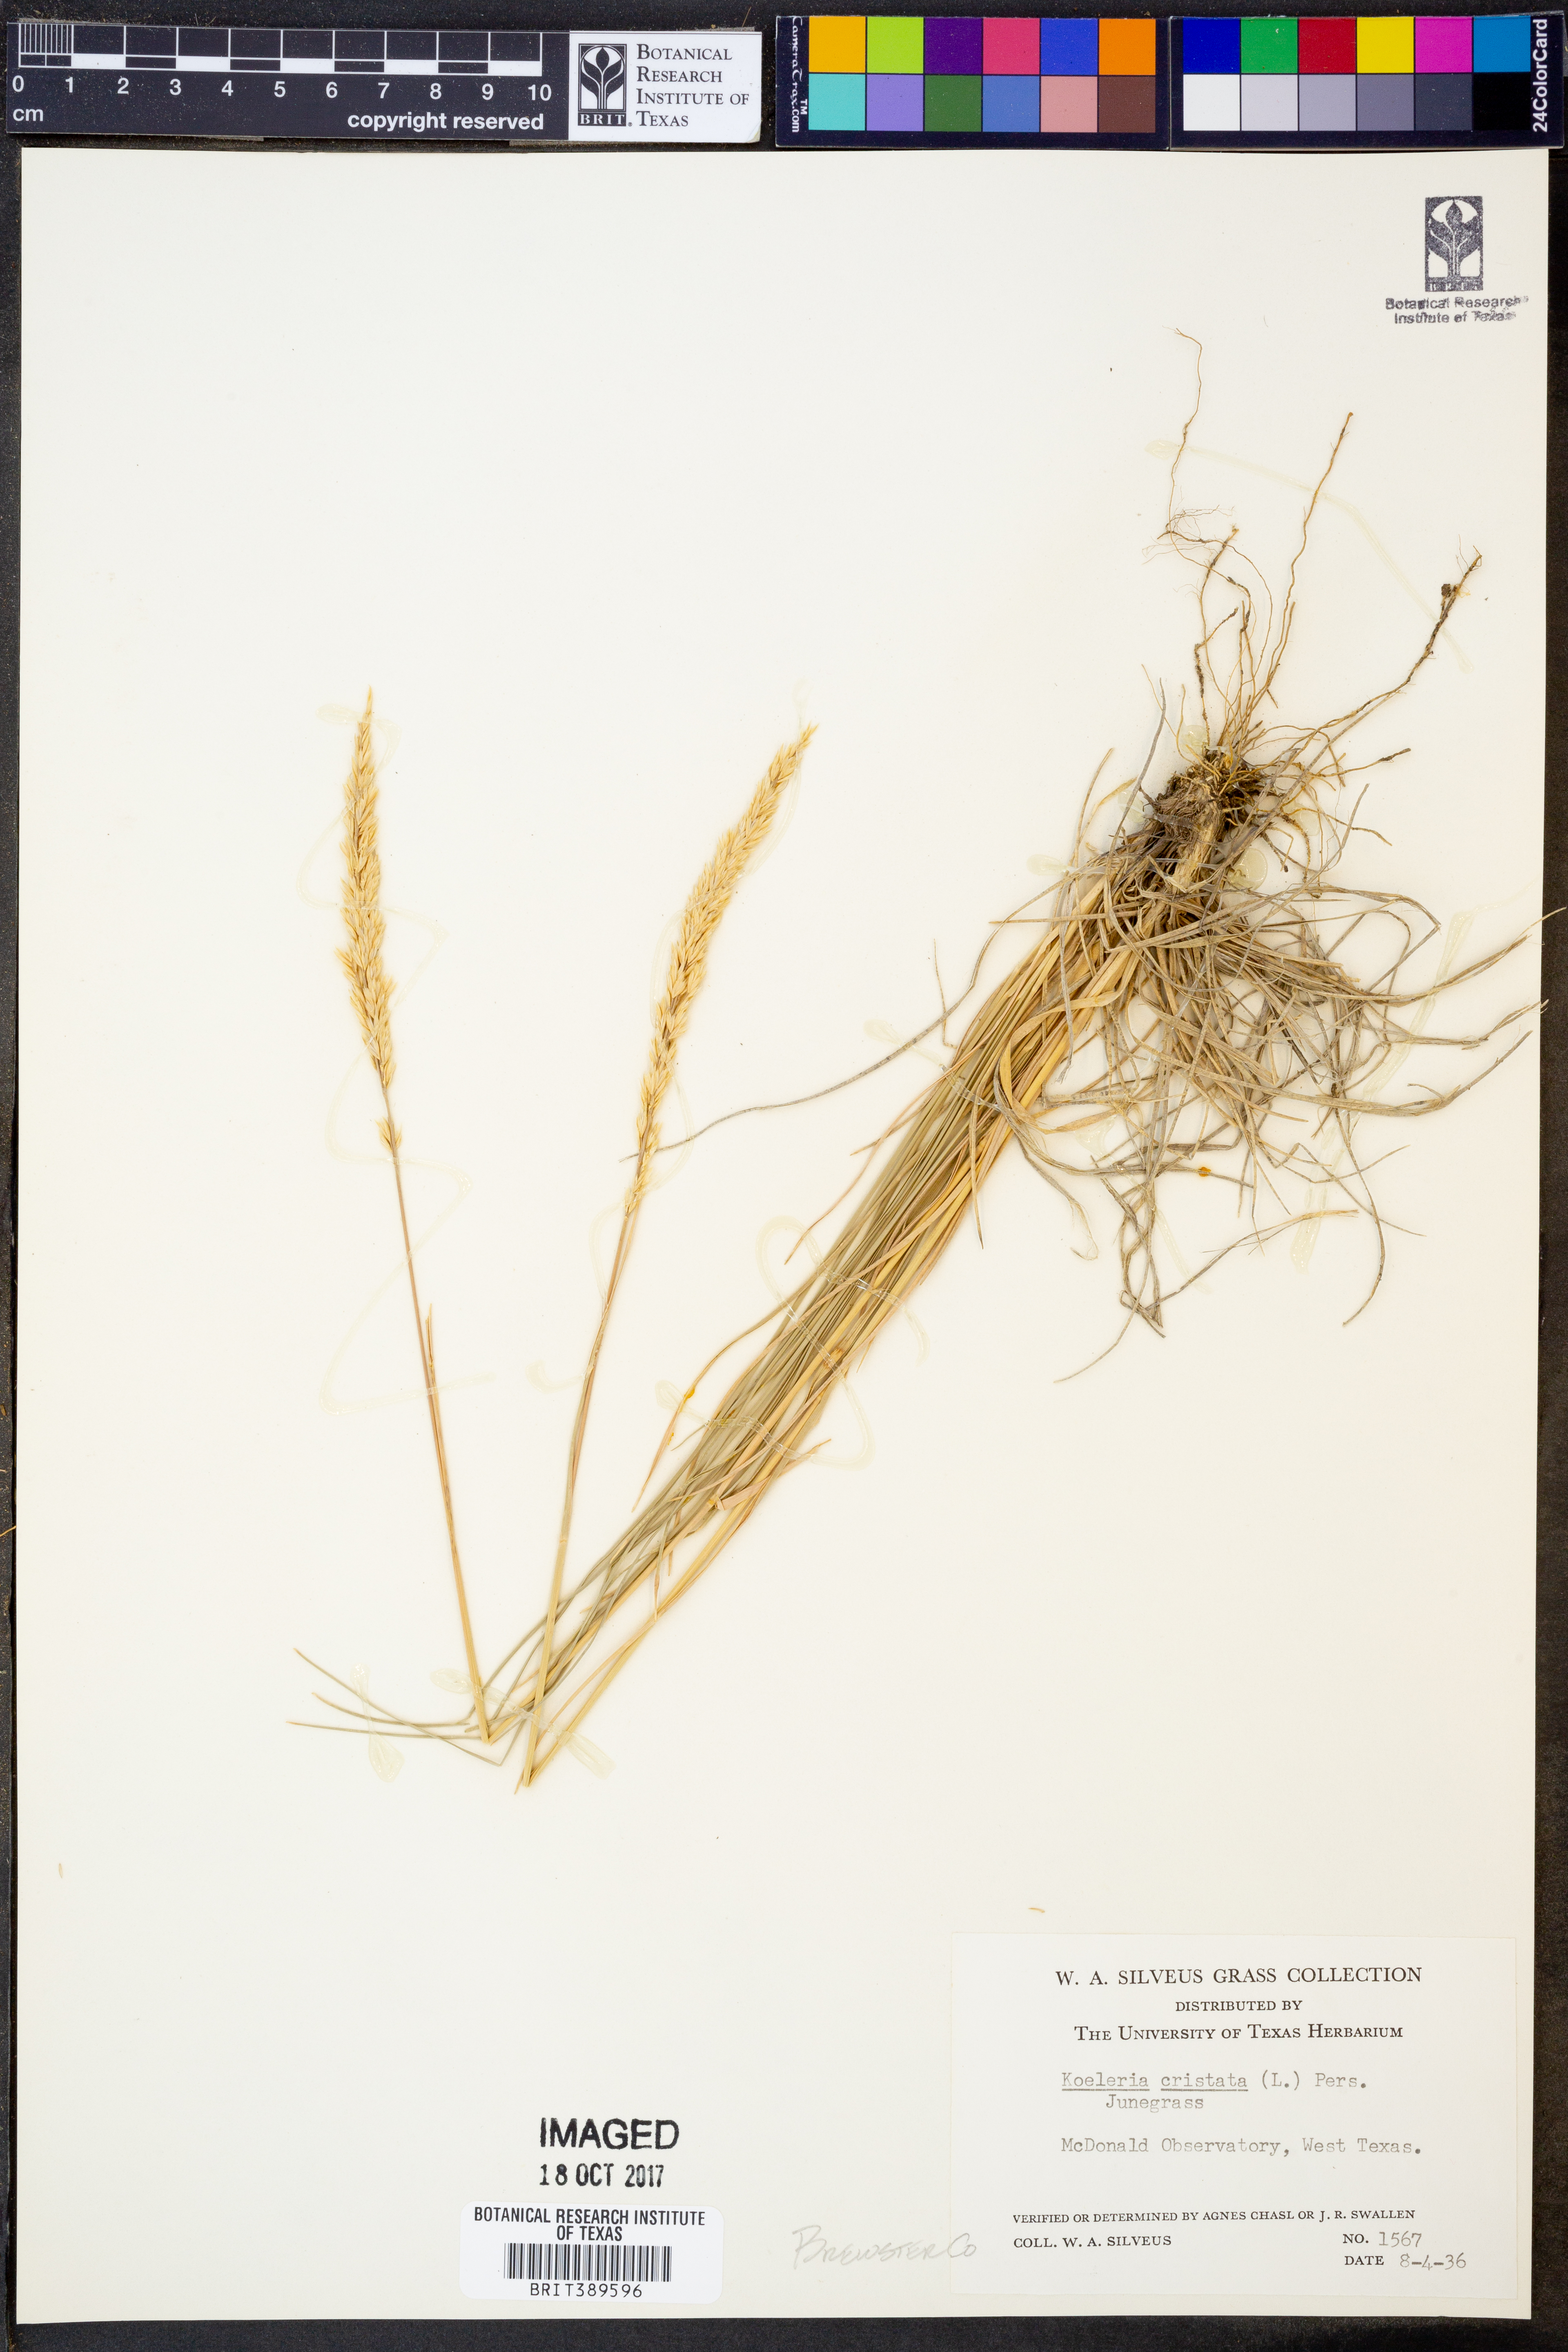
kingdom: Plantae
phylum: Tracheophyta
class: Liliopsida
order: Poales
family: Poaceae
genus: Koeleria
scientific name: Koeleria cristata
